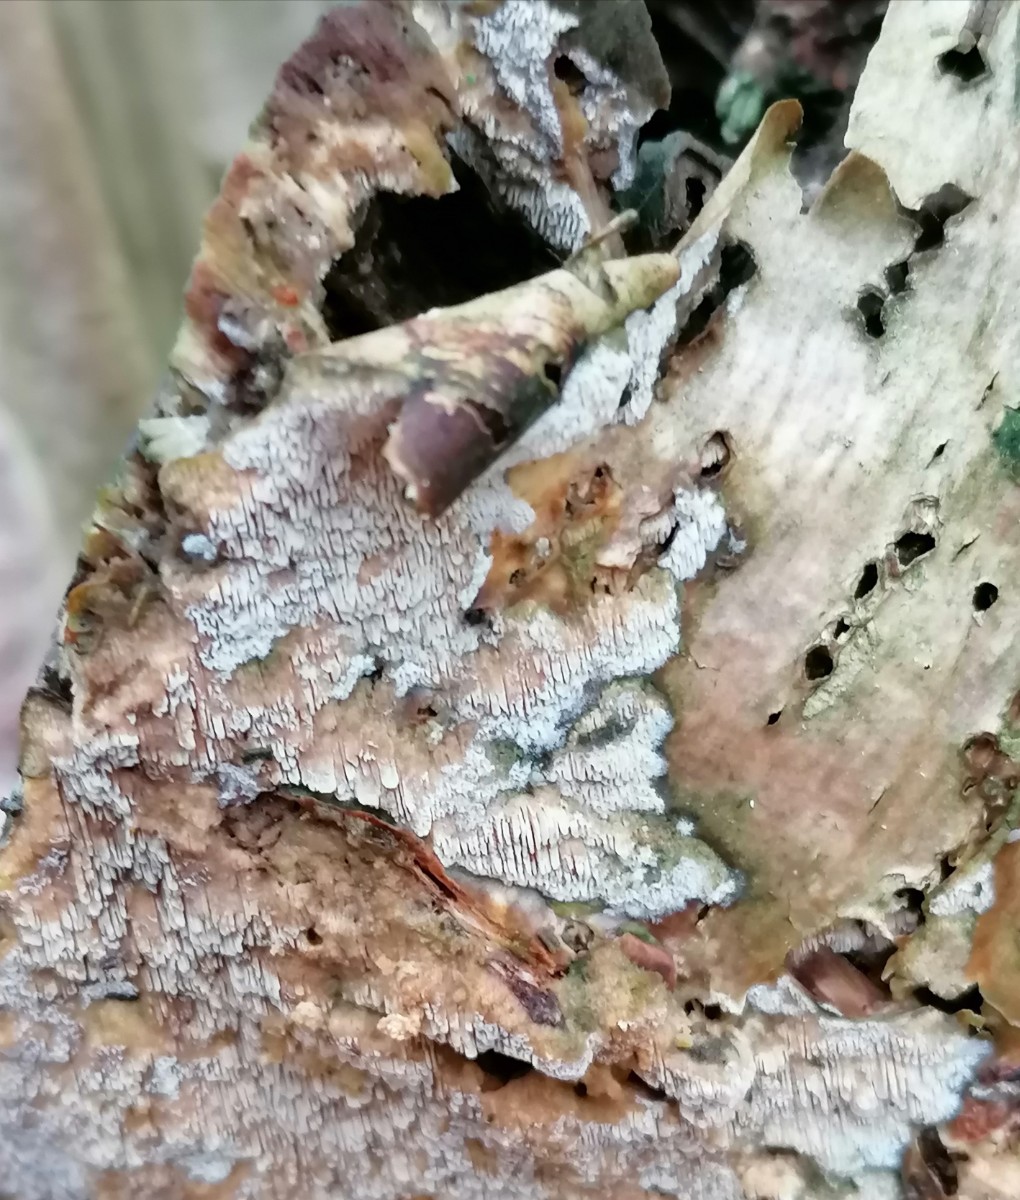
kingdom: Fungi
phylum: Basidiomycota
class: Agaricomycetes
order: Hymenochaetales
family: Schizoporaceae
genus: Schizopora
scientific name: Schizopora paradoxa
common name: hvid tandsvamp
